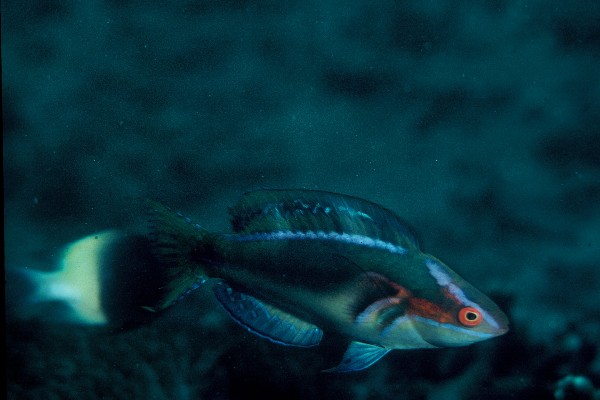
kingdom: Animalia
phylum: Chordata
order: Perciformes
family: Labridae
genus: Cirrhilabrus
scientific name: Cirrhilabrus exquisitus
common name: Exquisite wrasse
